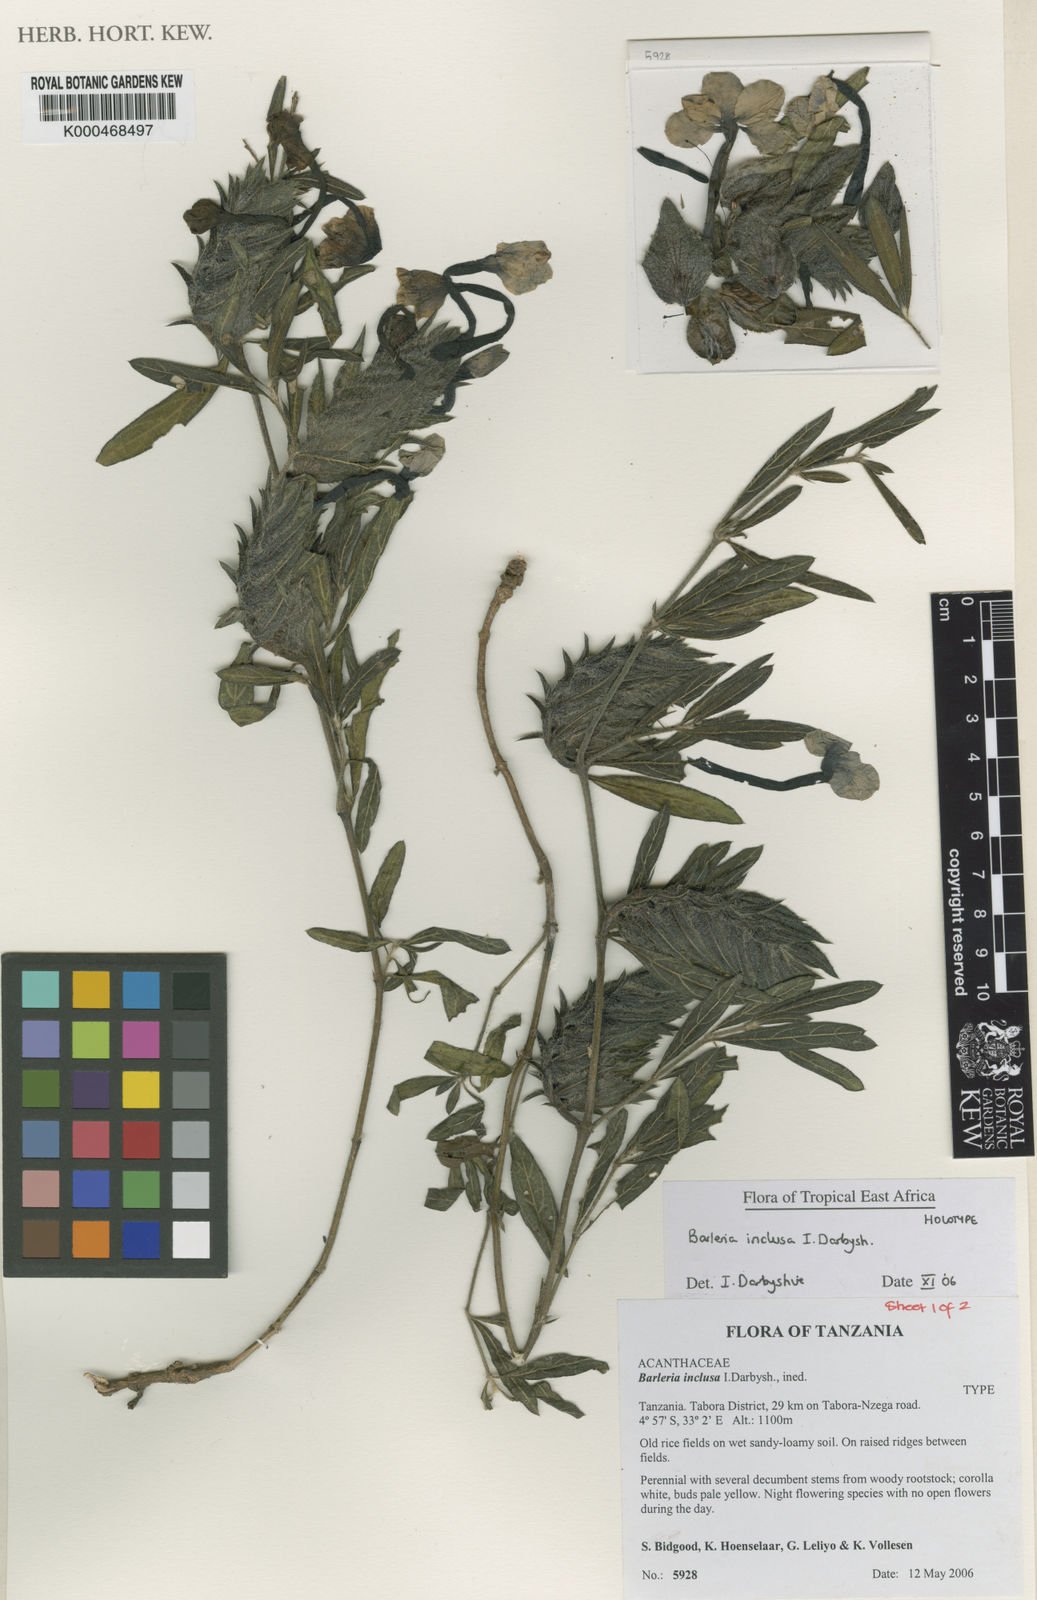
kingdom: Plantae
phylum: Tracheophyta
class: Magnoliopsida
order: Lamiales
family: Acanthaceae
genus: Barleria
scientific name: Barleria inclusa
